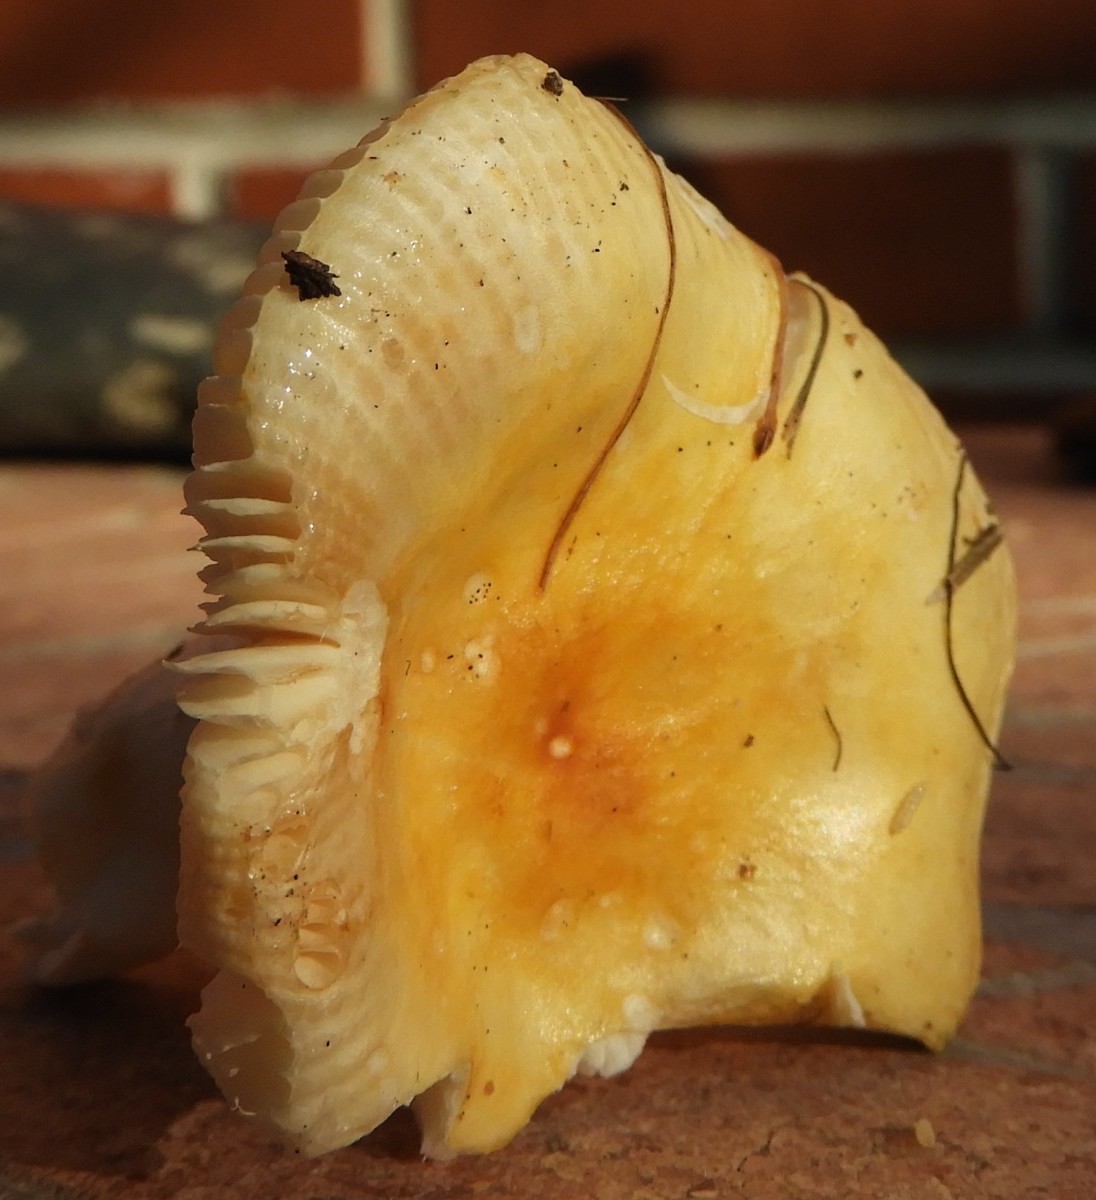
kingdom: Fungi
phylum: Basidiomycota
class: Agaricomycetes
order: Russulales
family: Russulaceae
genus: Russula
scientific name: Russula solaris
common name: sol-skørhat
